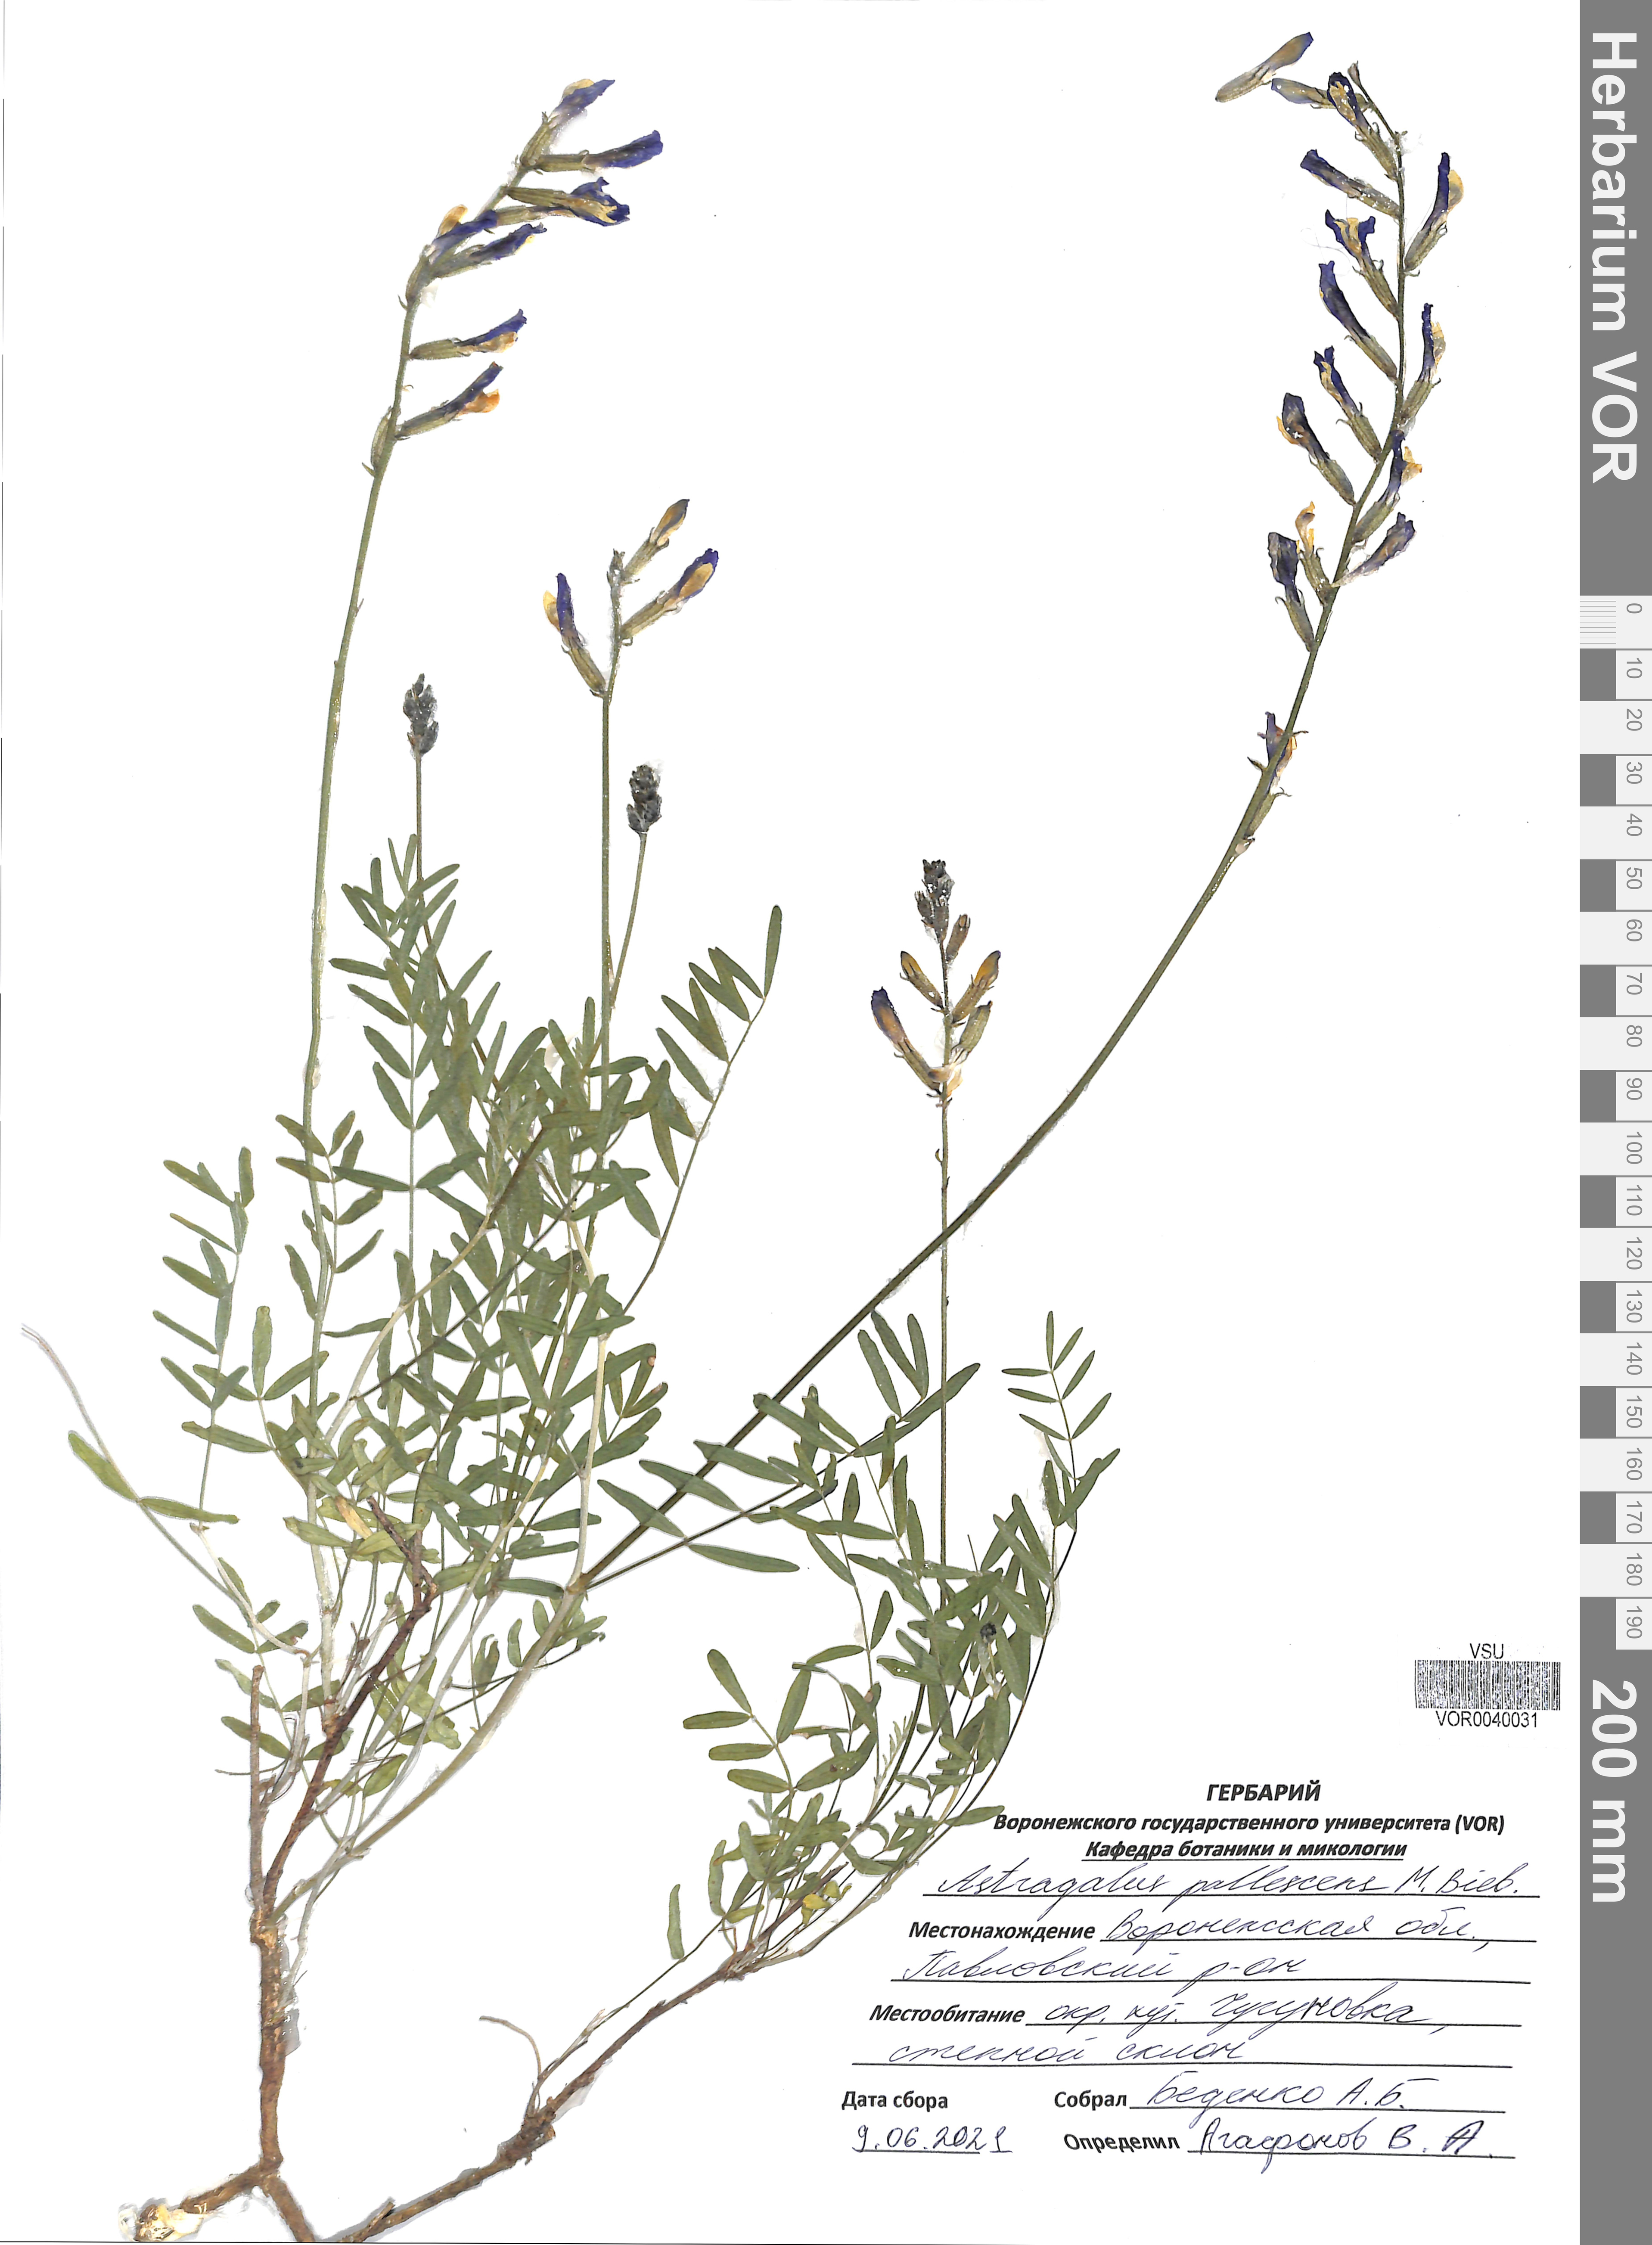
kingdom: Plantae
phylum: Tracheophyta
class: Magnoliopsida
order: Fabales
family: Fabaceae
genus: Astragalus
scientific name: Astragalus pallescens
